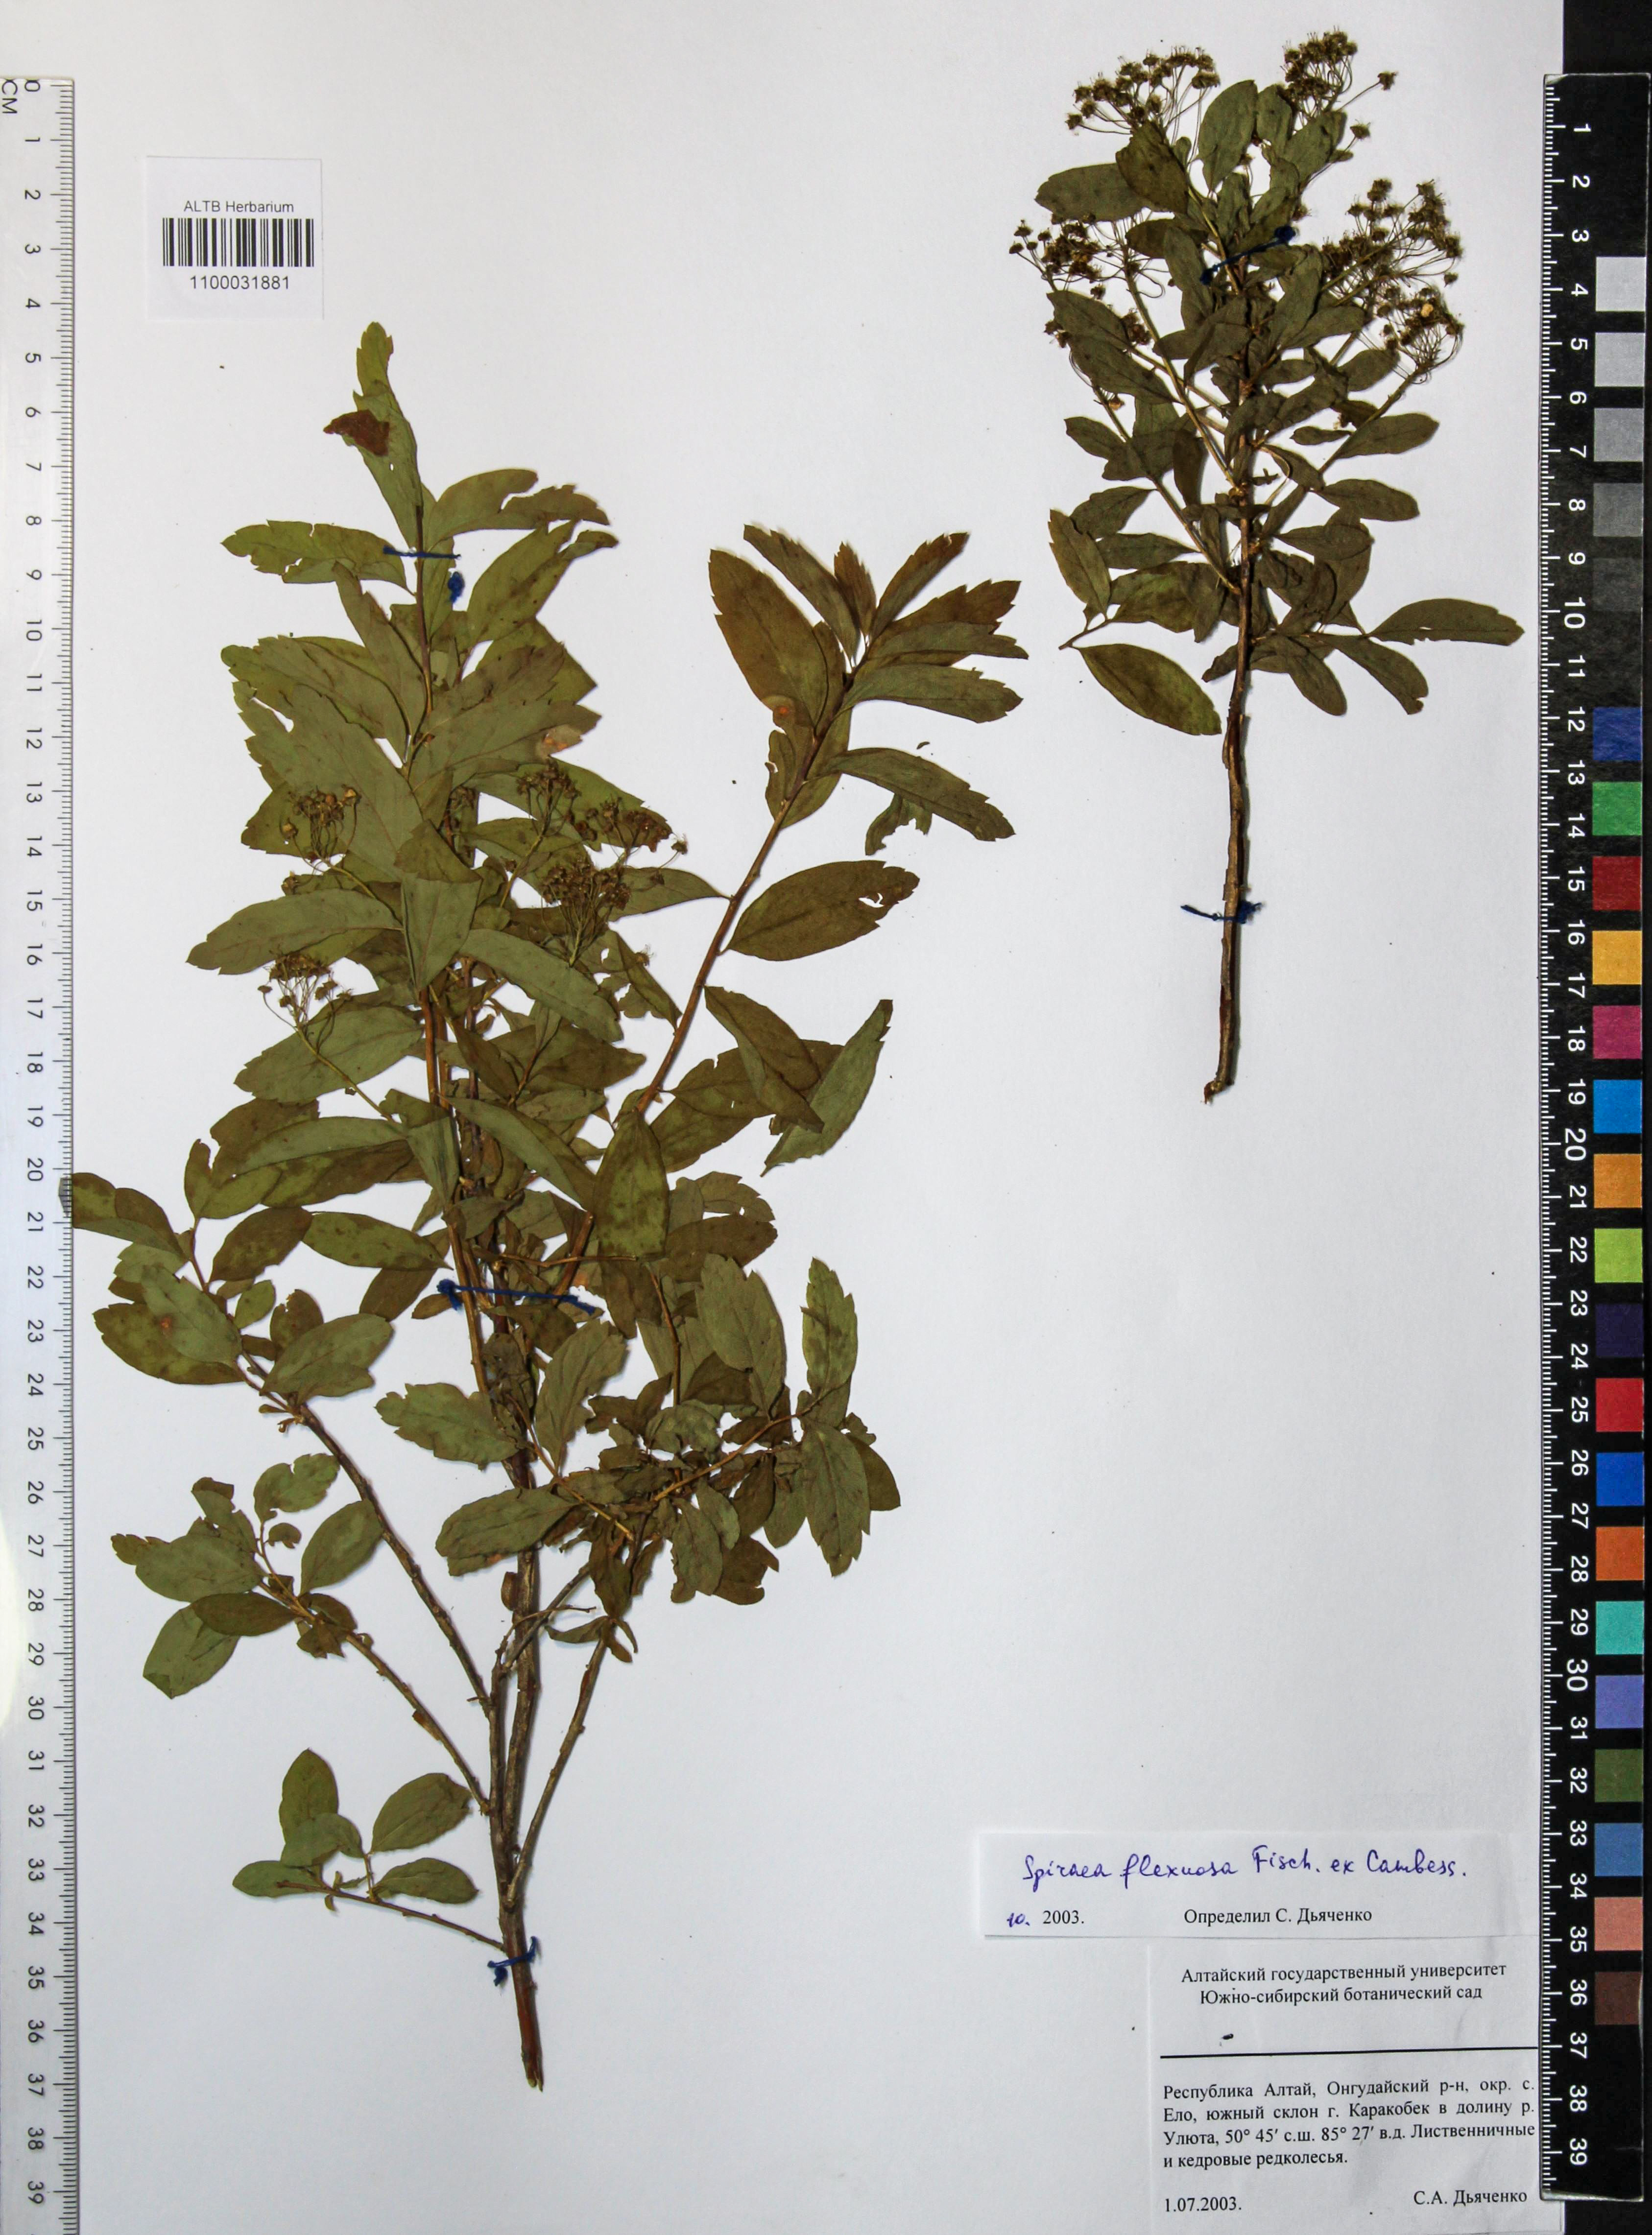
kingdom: Plantae
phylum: Tracheophyta
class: Magnoliopsida
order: Rosales
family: Rosaceae
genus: Spiraea
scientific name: Spiraea flexuosa
